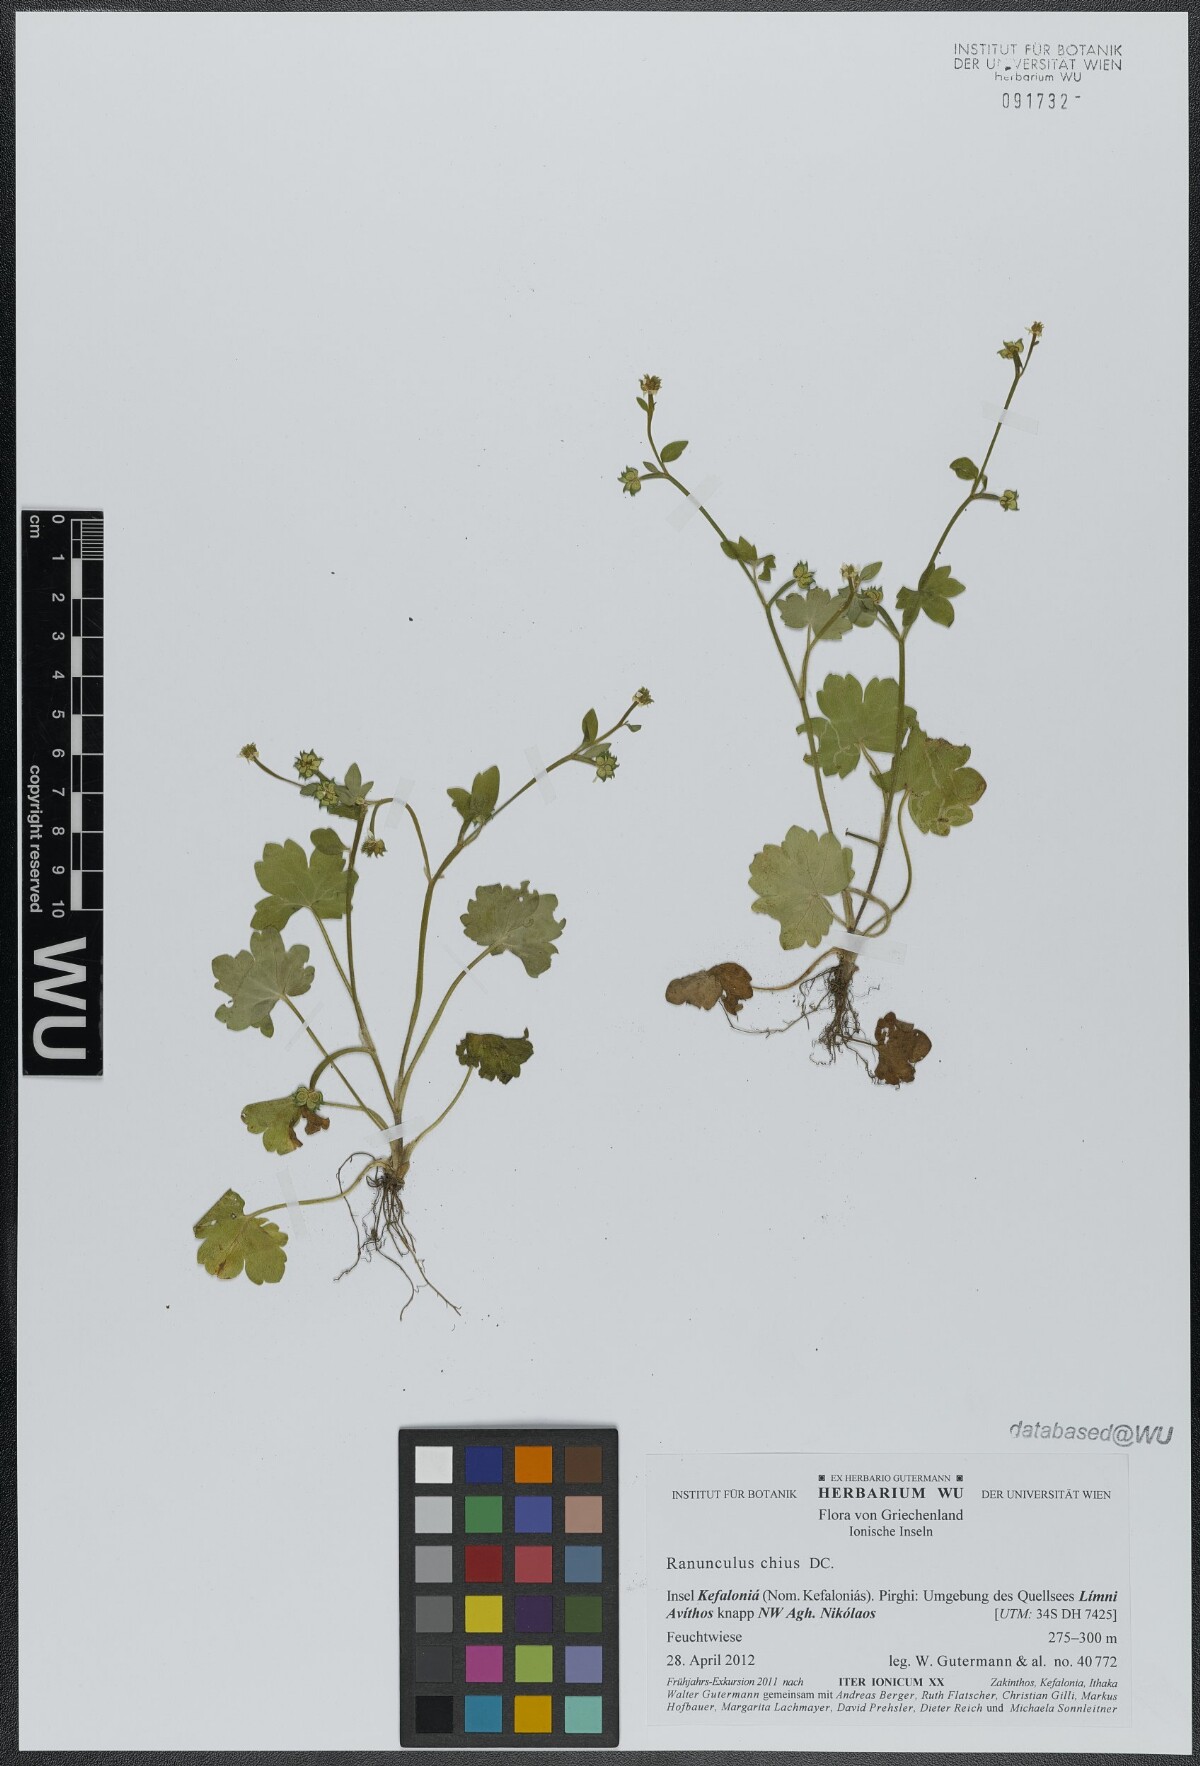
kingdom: Plantae
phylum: Tracheophyta
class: Magnoliopsida
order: Ranunculales
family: Ranunculaceae
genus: Ranunculus
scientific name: Ranunculus chius
